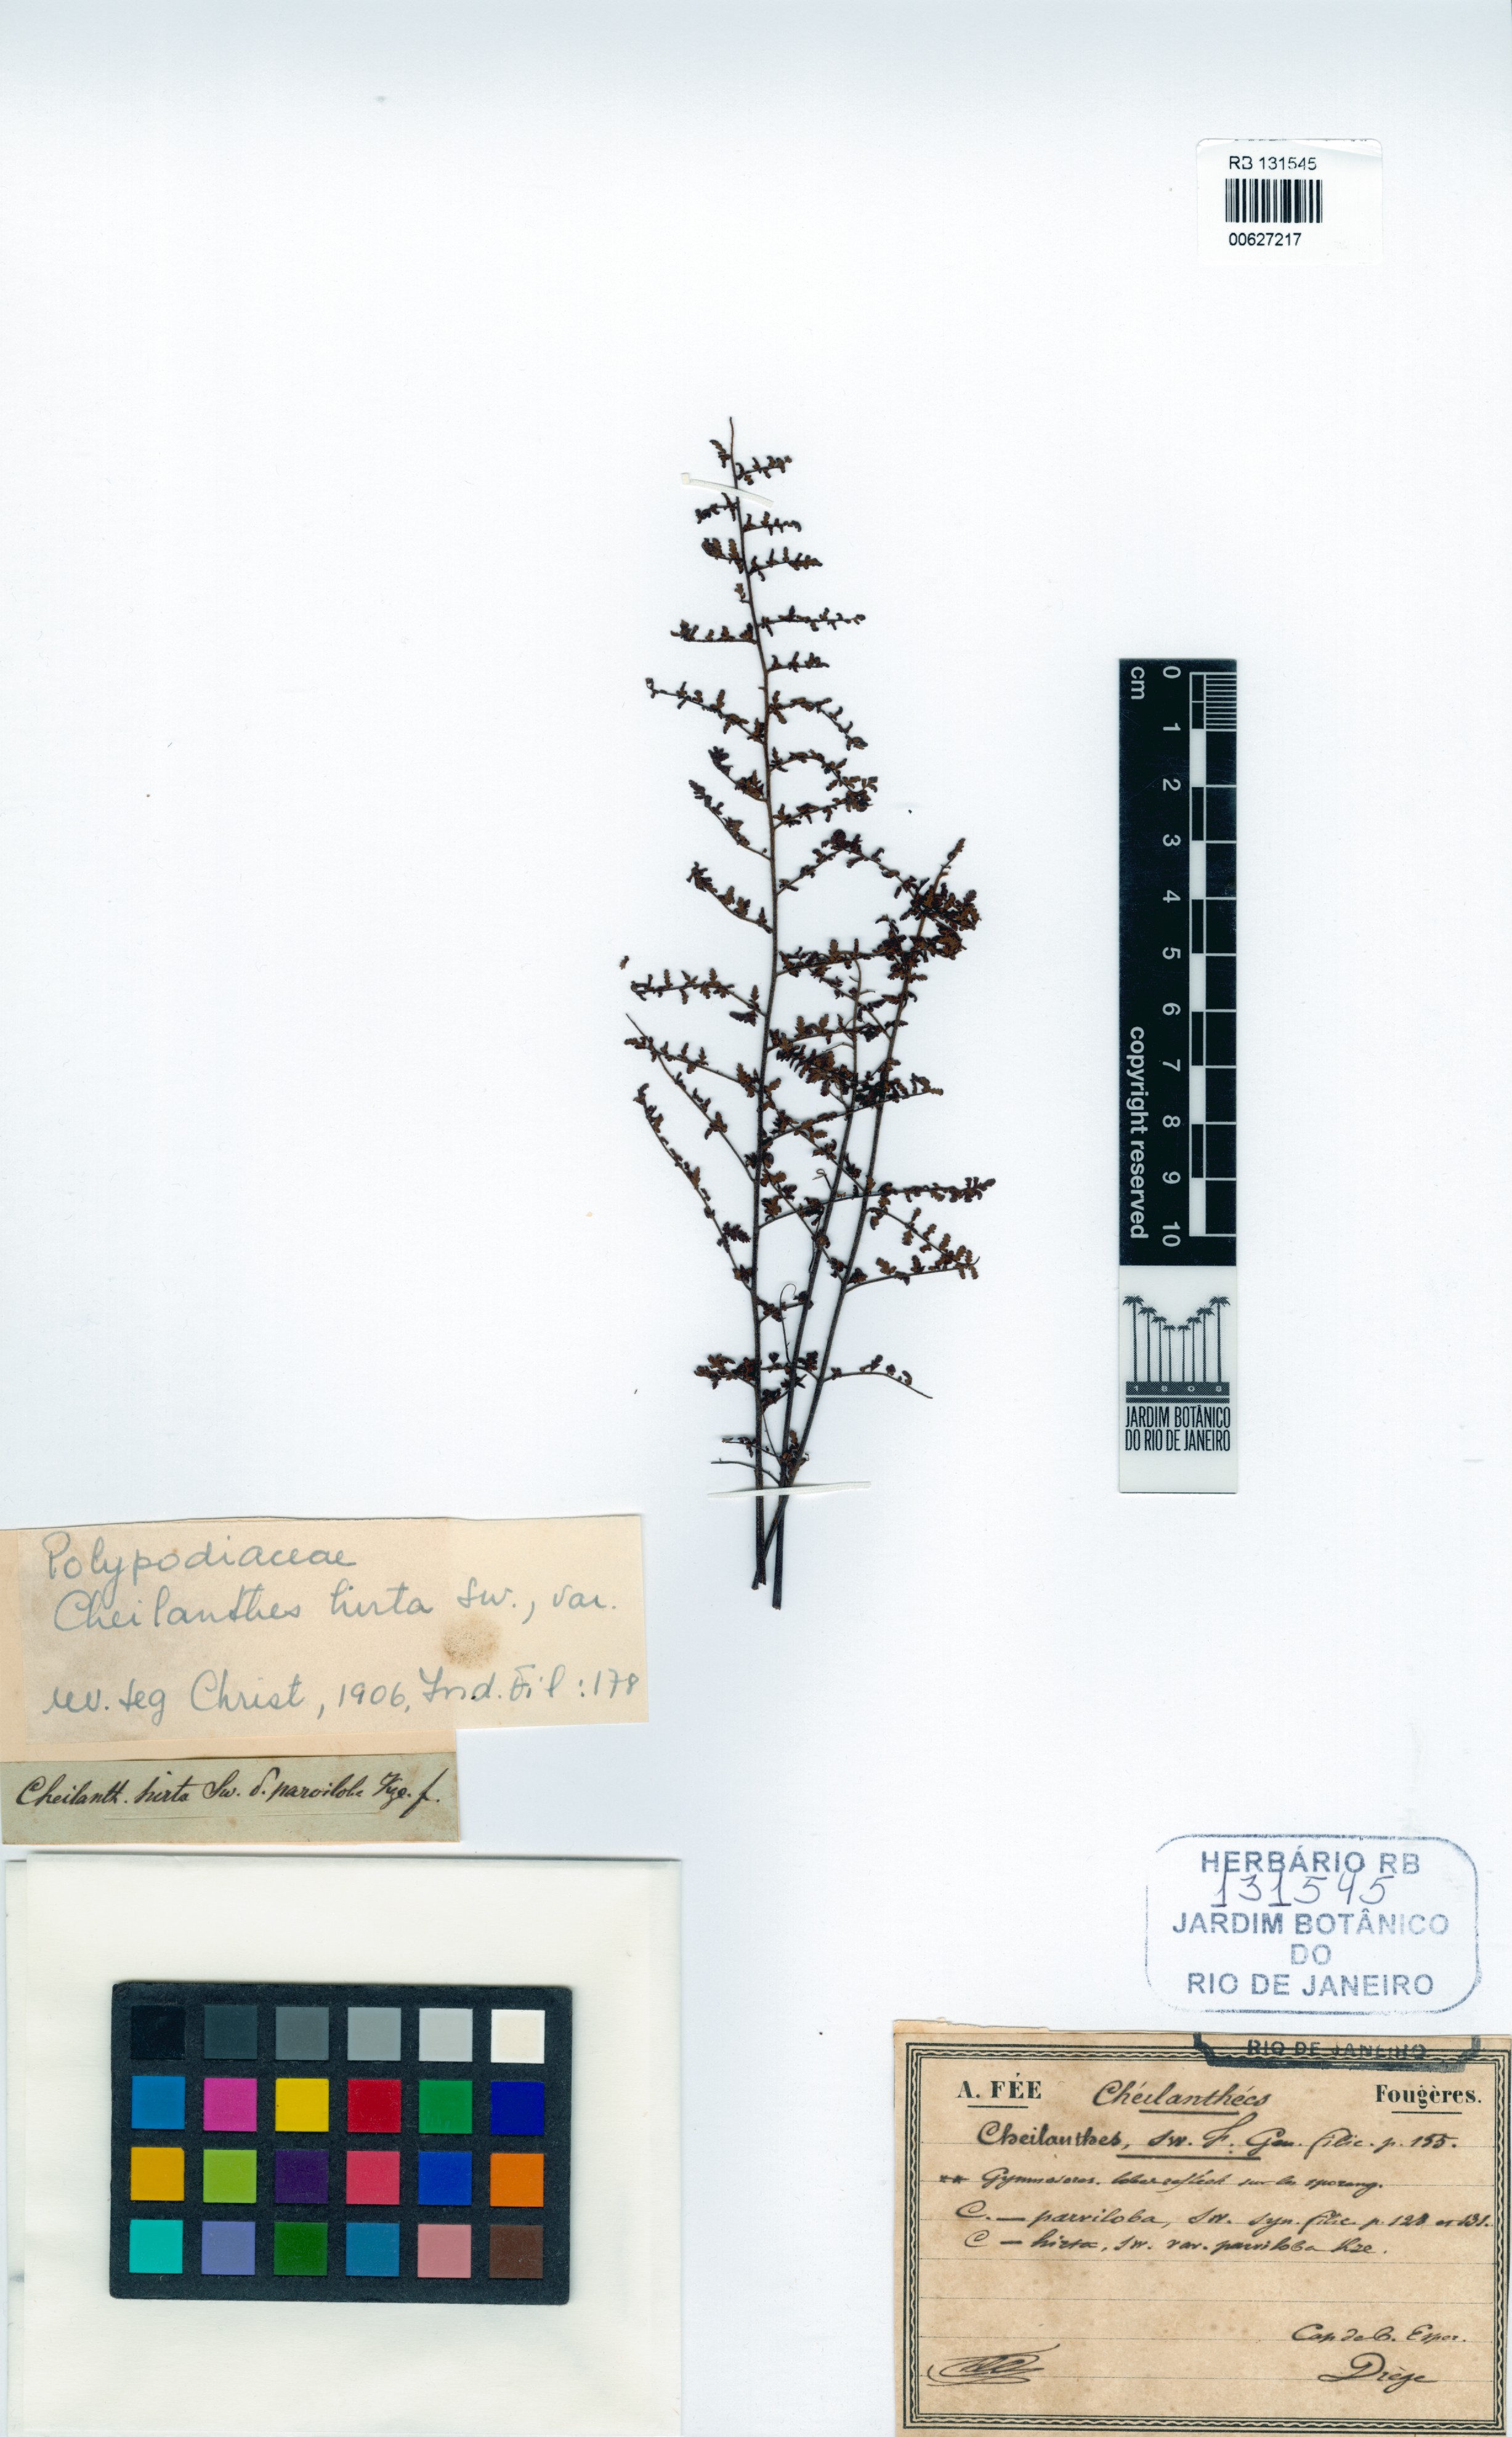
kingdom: Plantae
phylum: Tracheophyta
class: Polypodiopsida
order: Polypodiales
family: Pteridaceae
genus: Cheilanthes
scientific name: Cheilanthes hirta
